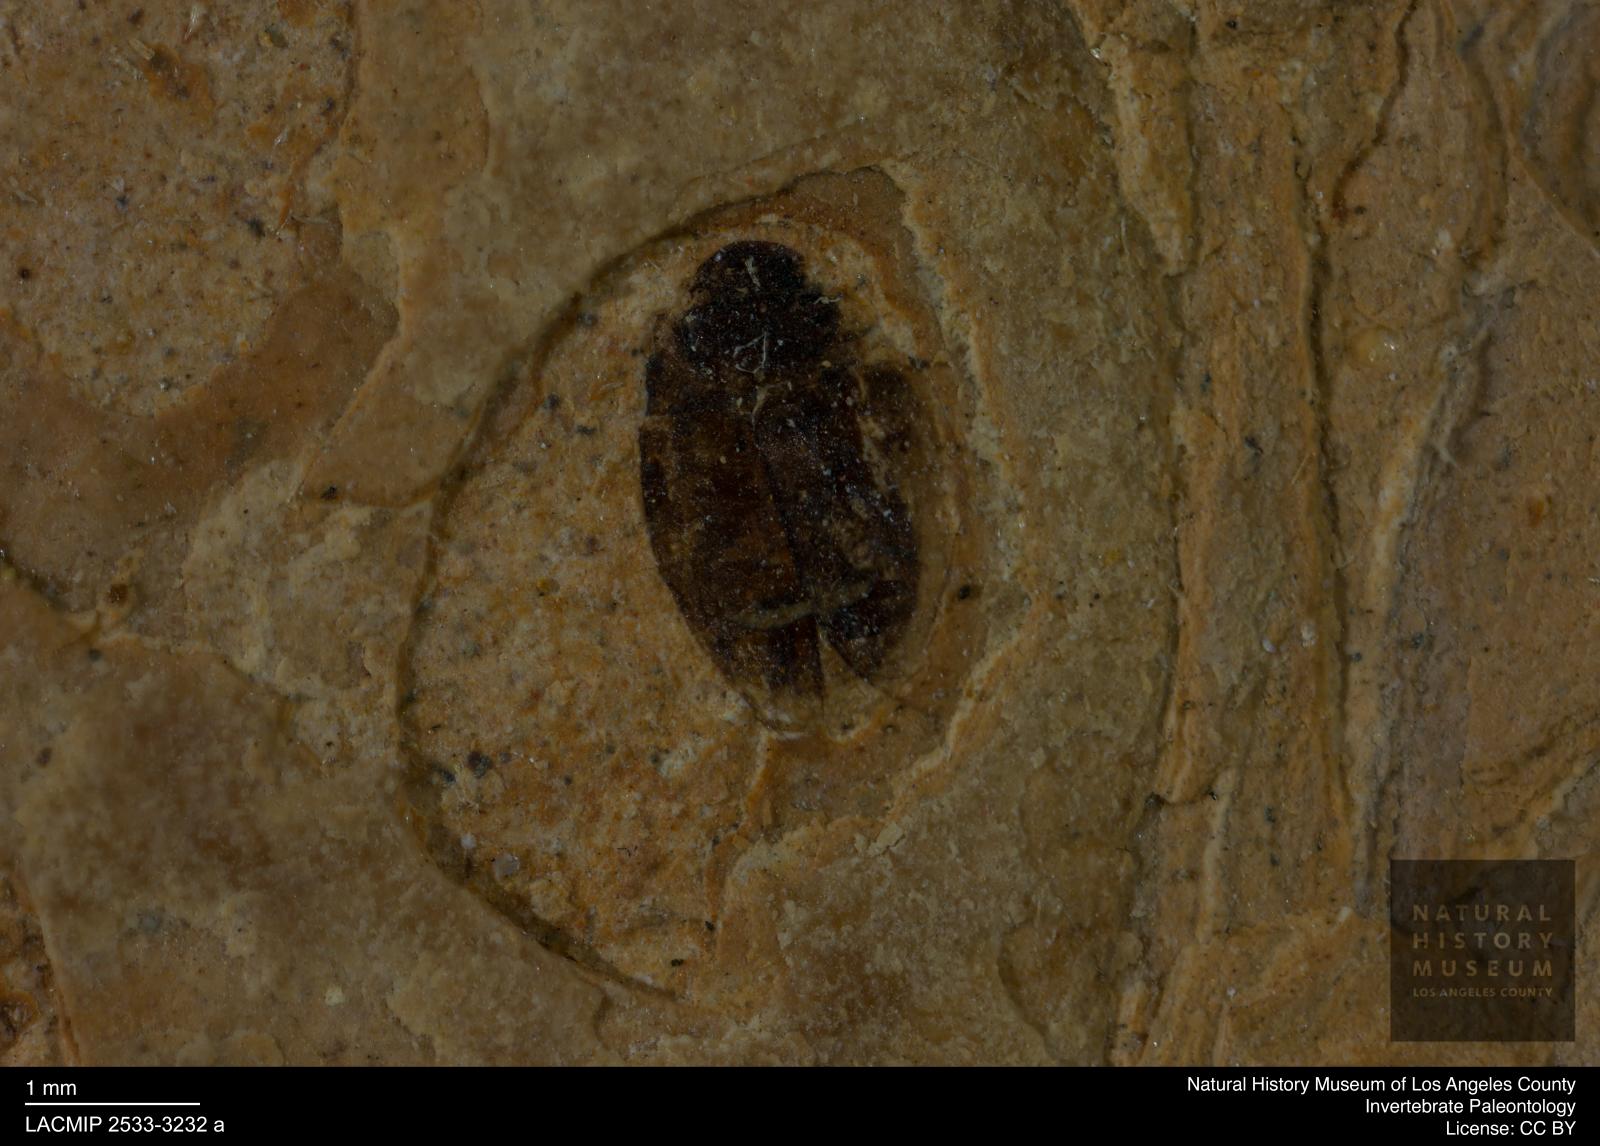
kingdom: Animalia
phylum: Arthropoda
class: Insecta
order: Coleoptera
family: Hydrophilidae
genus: Paracymus
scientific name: Paracymus excitatus
